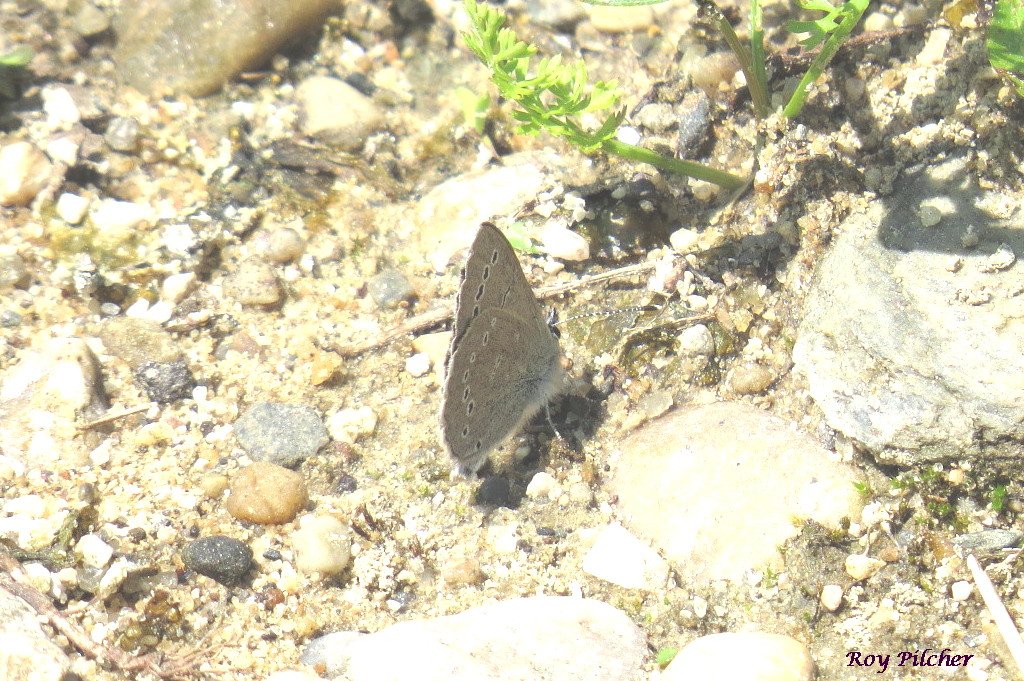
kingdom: Animalia
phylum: Arthropoda
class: Insecta
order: Lepidoptera
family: Lycaenidae
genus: Glaucopsyche
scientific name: Glaucopsyche lygdamus
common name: Silvery Blue
